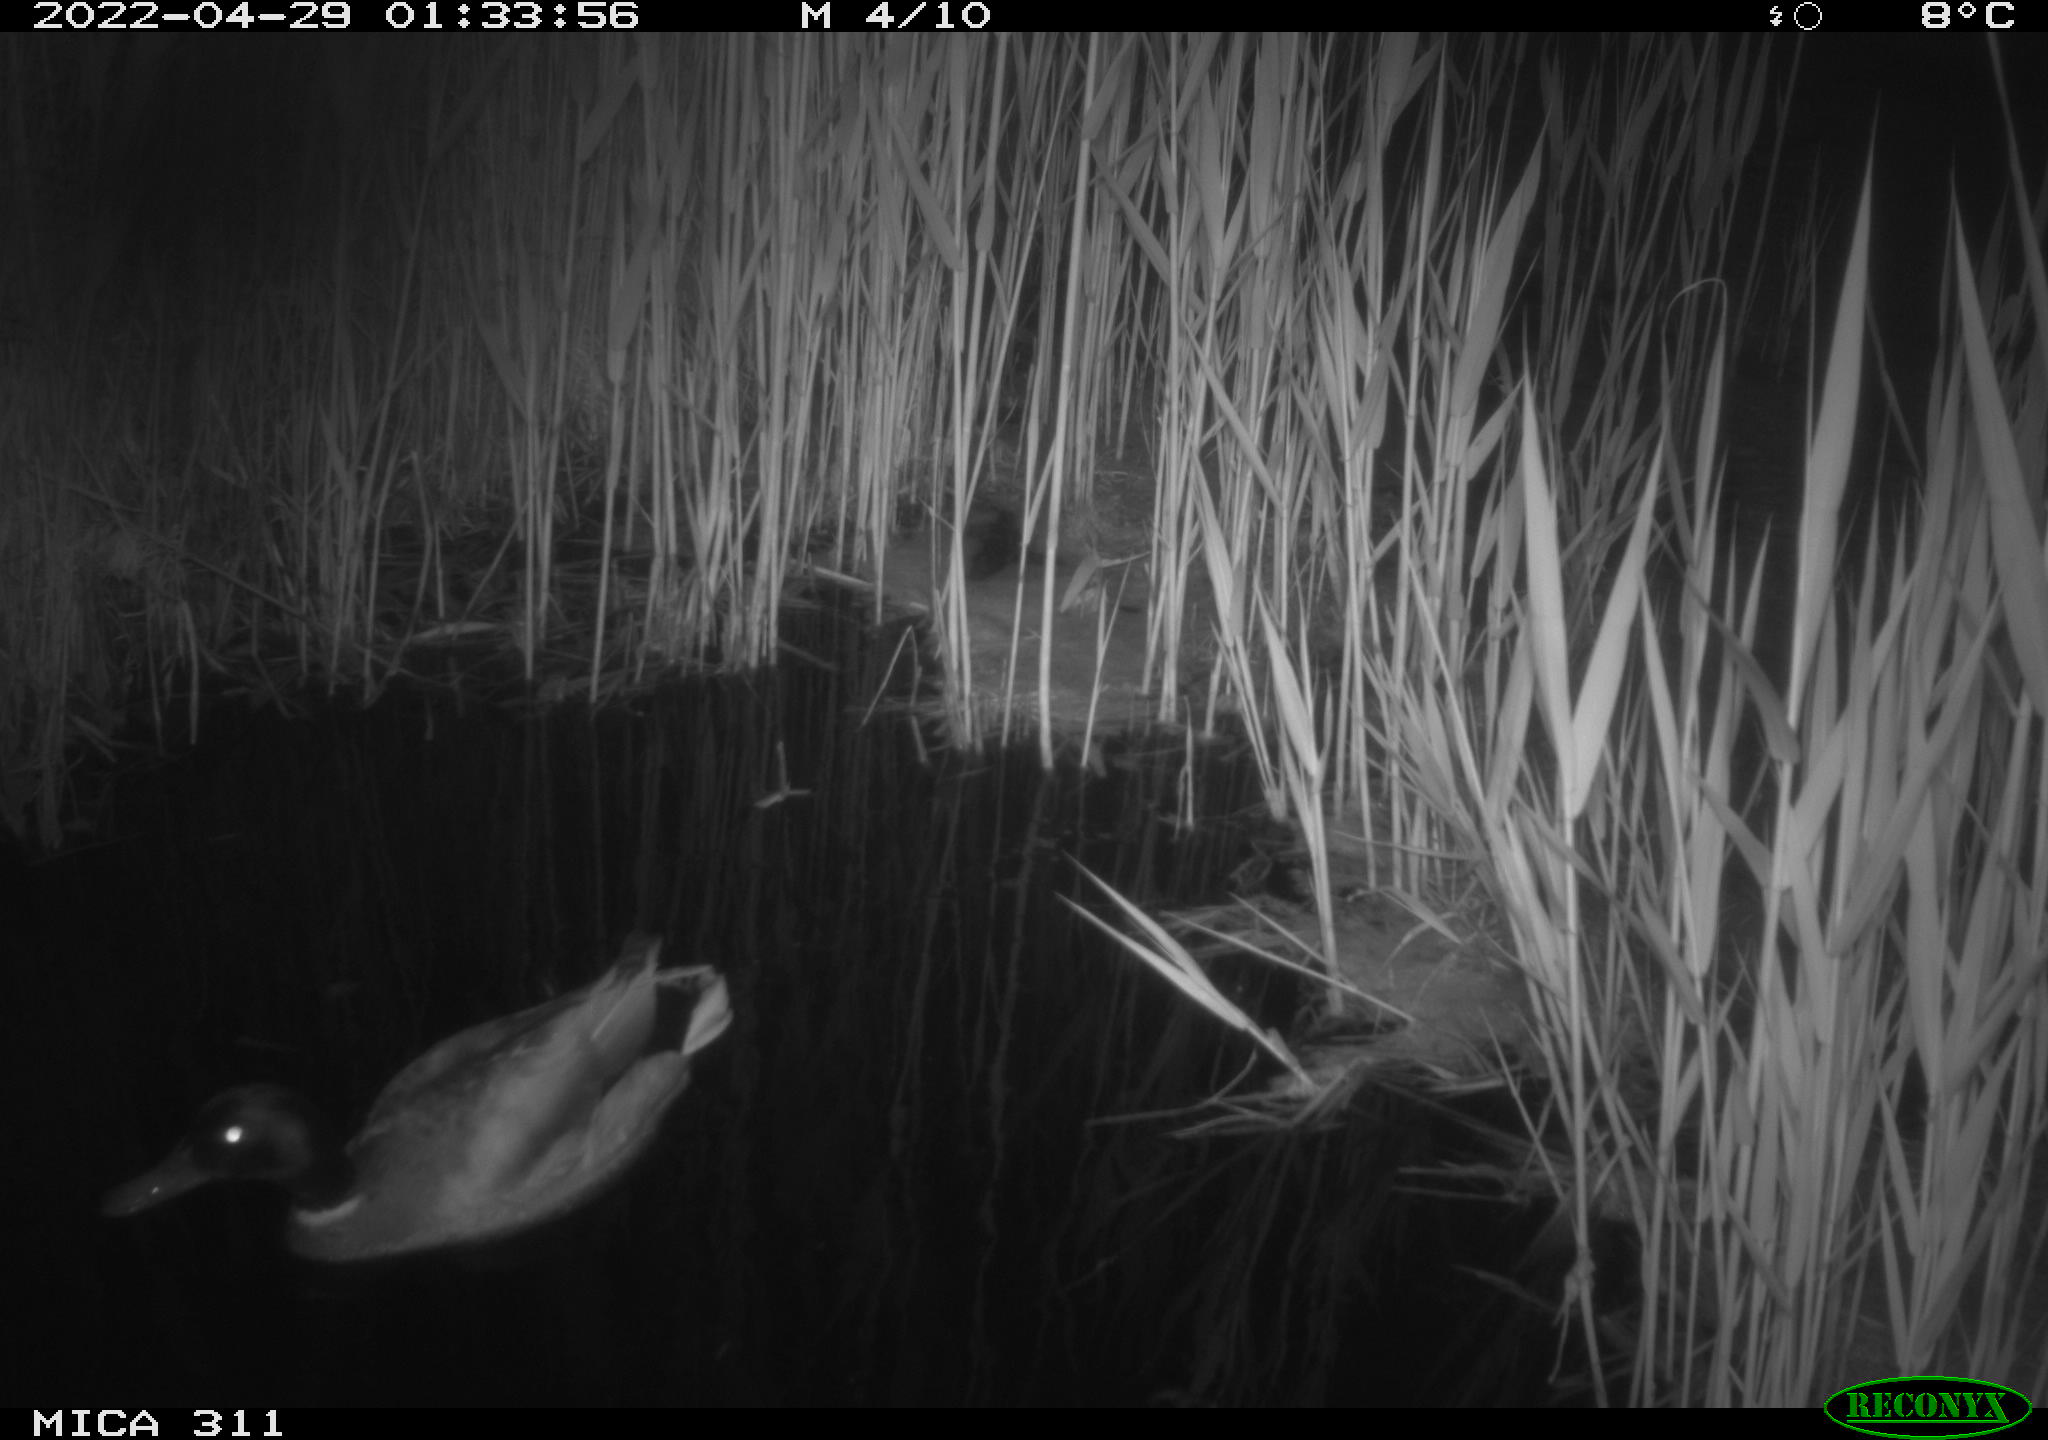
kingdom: Animalia
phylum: Chordata
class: Aves
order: Anseriformes
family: Anatidae
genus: Anas
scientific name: Anas
